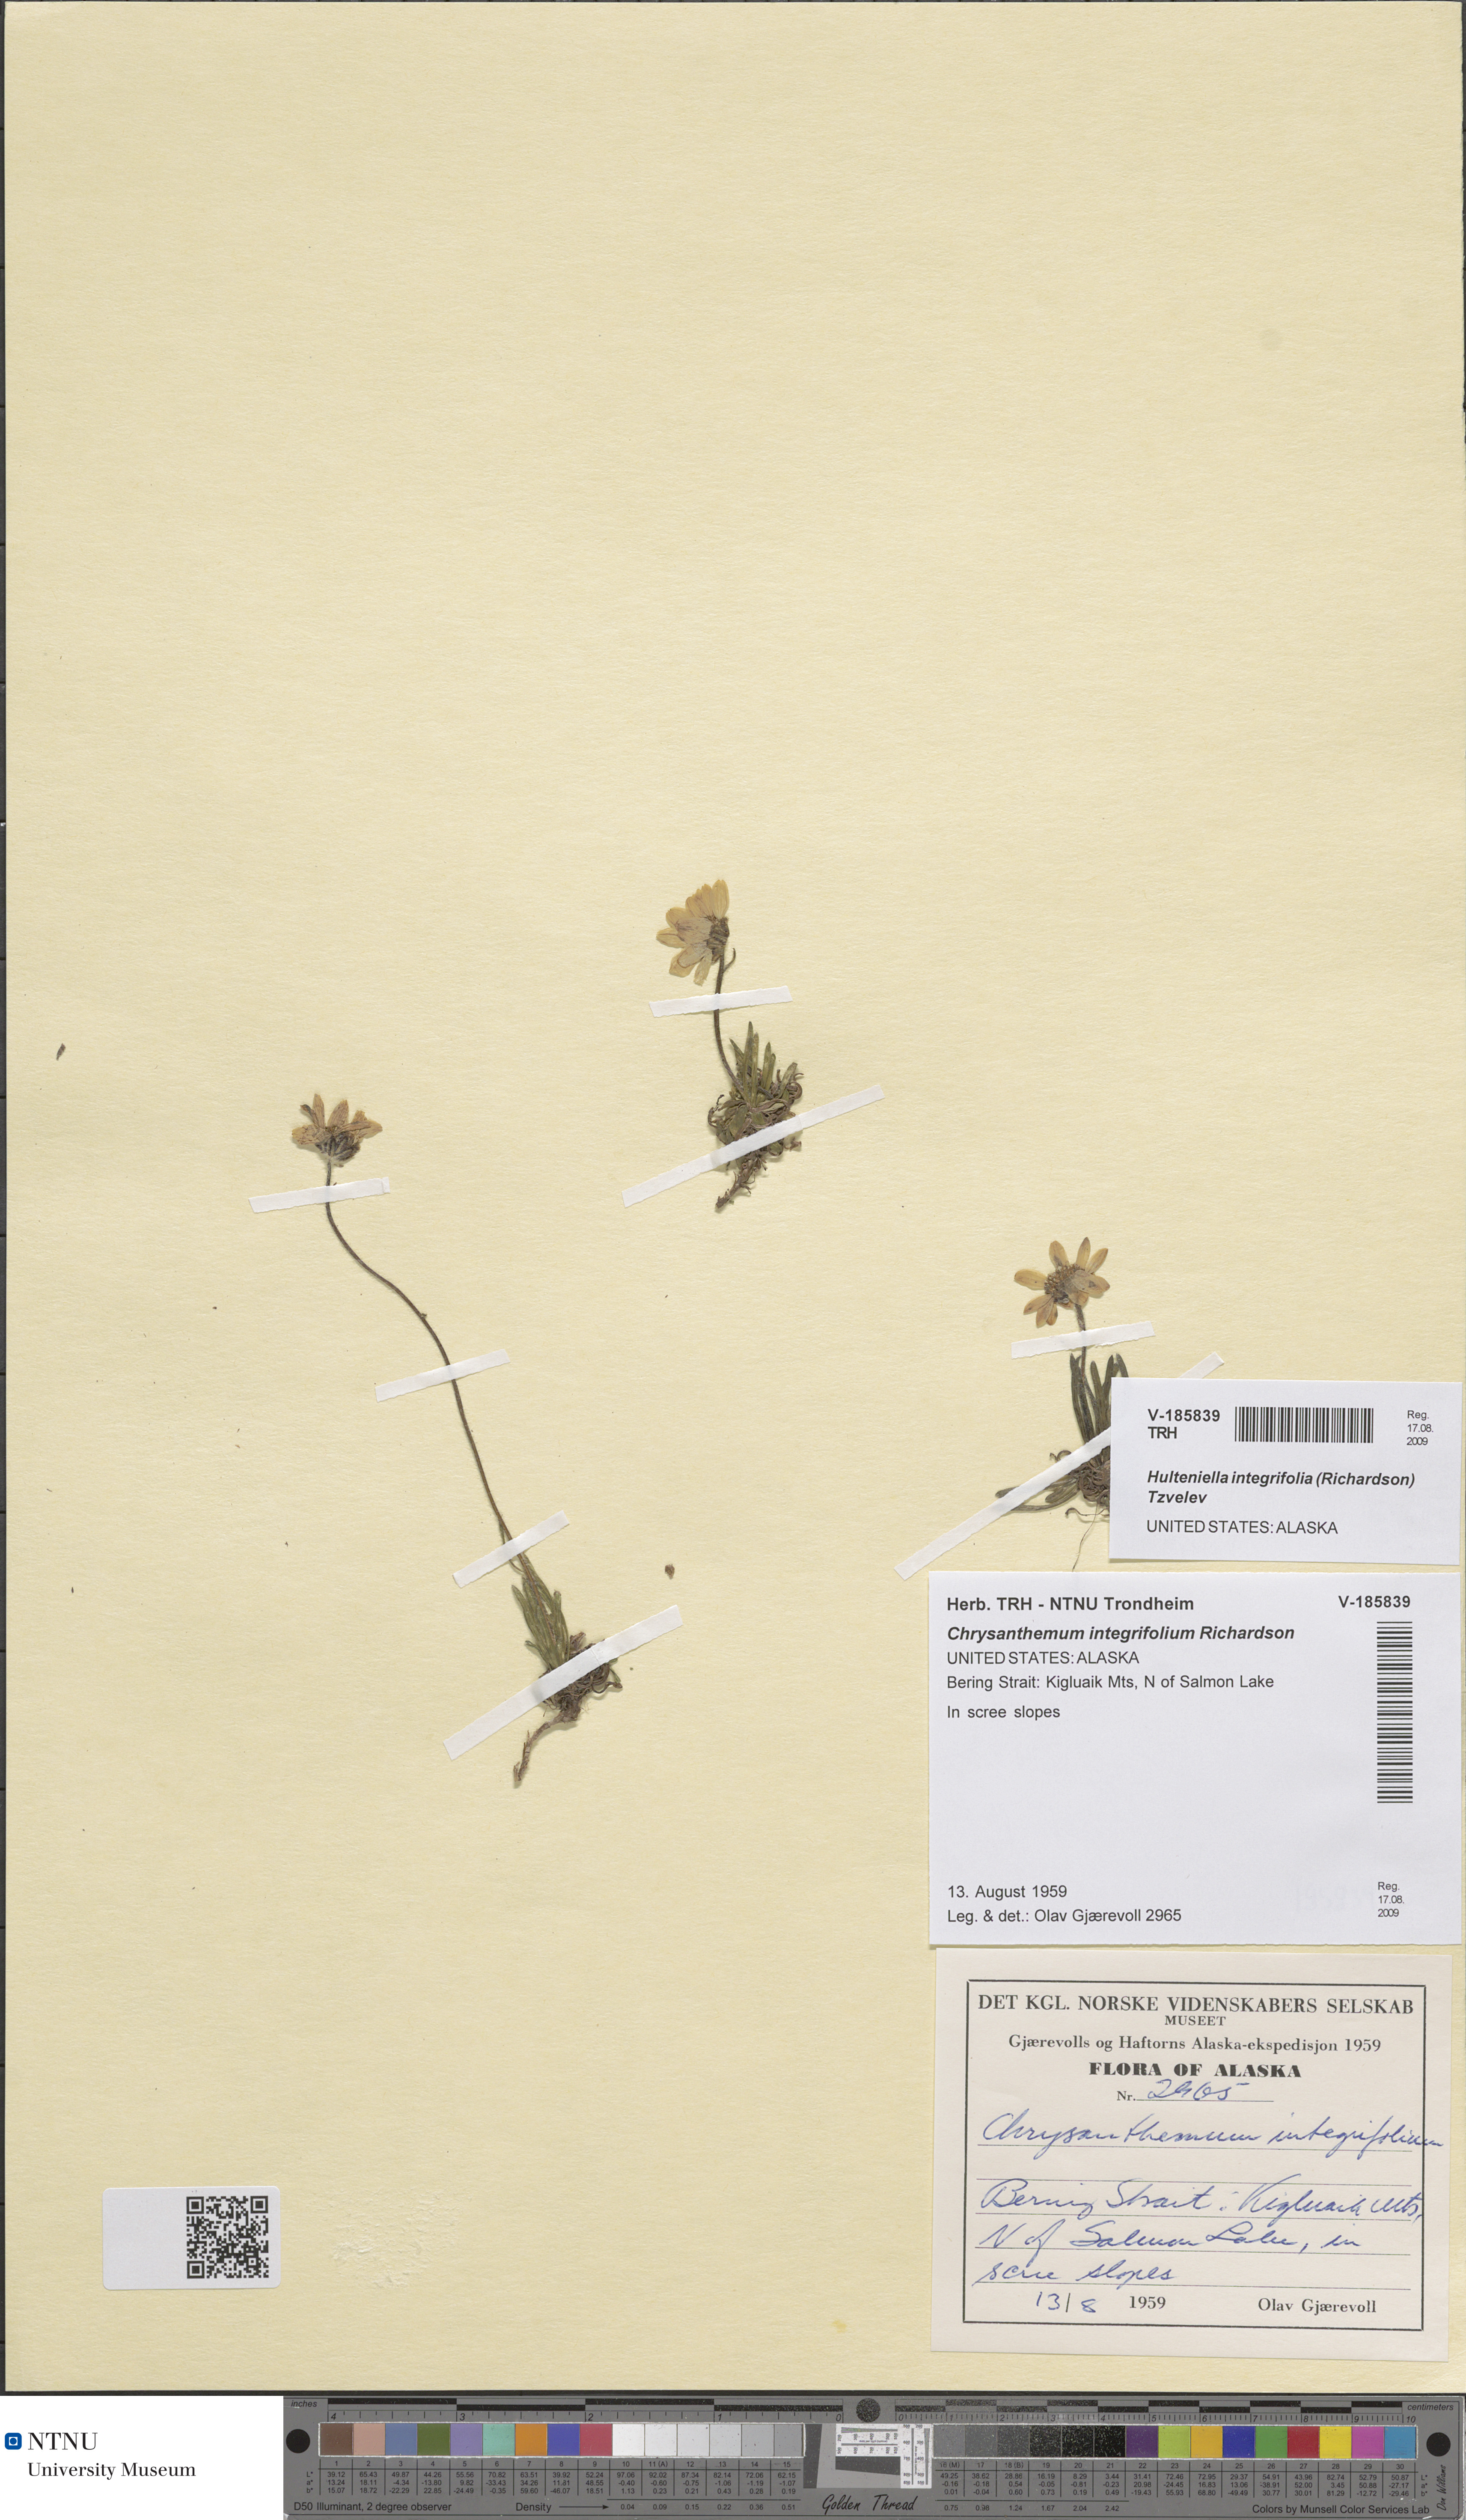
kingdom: Plantae
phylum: Tracheophyta
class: Magnoliopsida
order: Asterales
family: Asteraceae
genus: Arctanthemum
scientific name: Arctanthemum integrifolium
